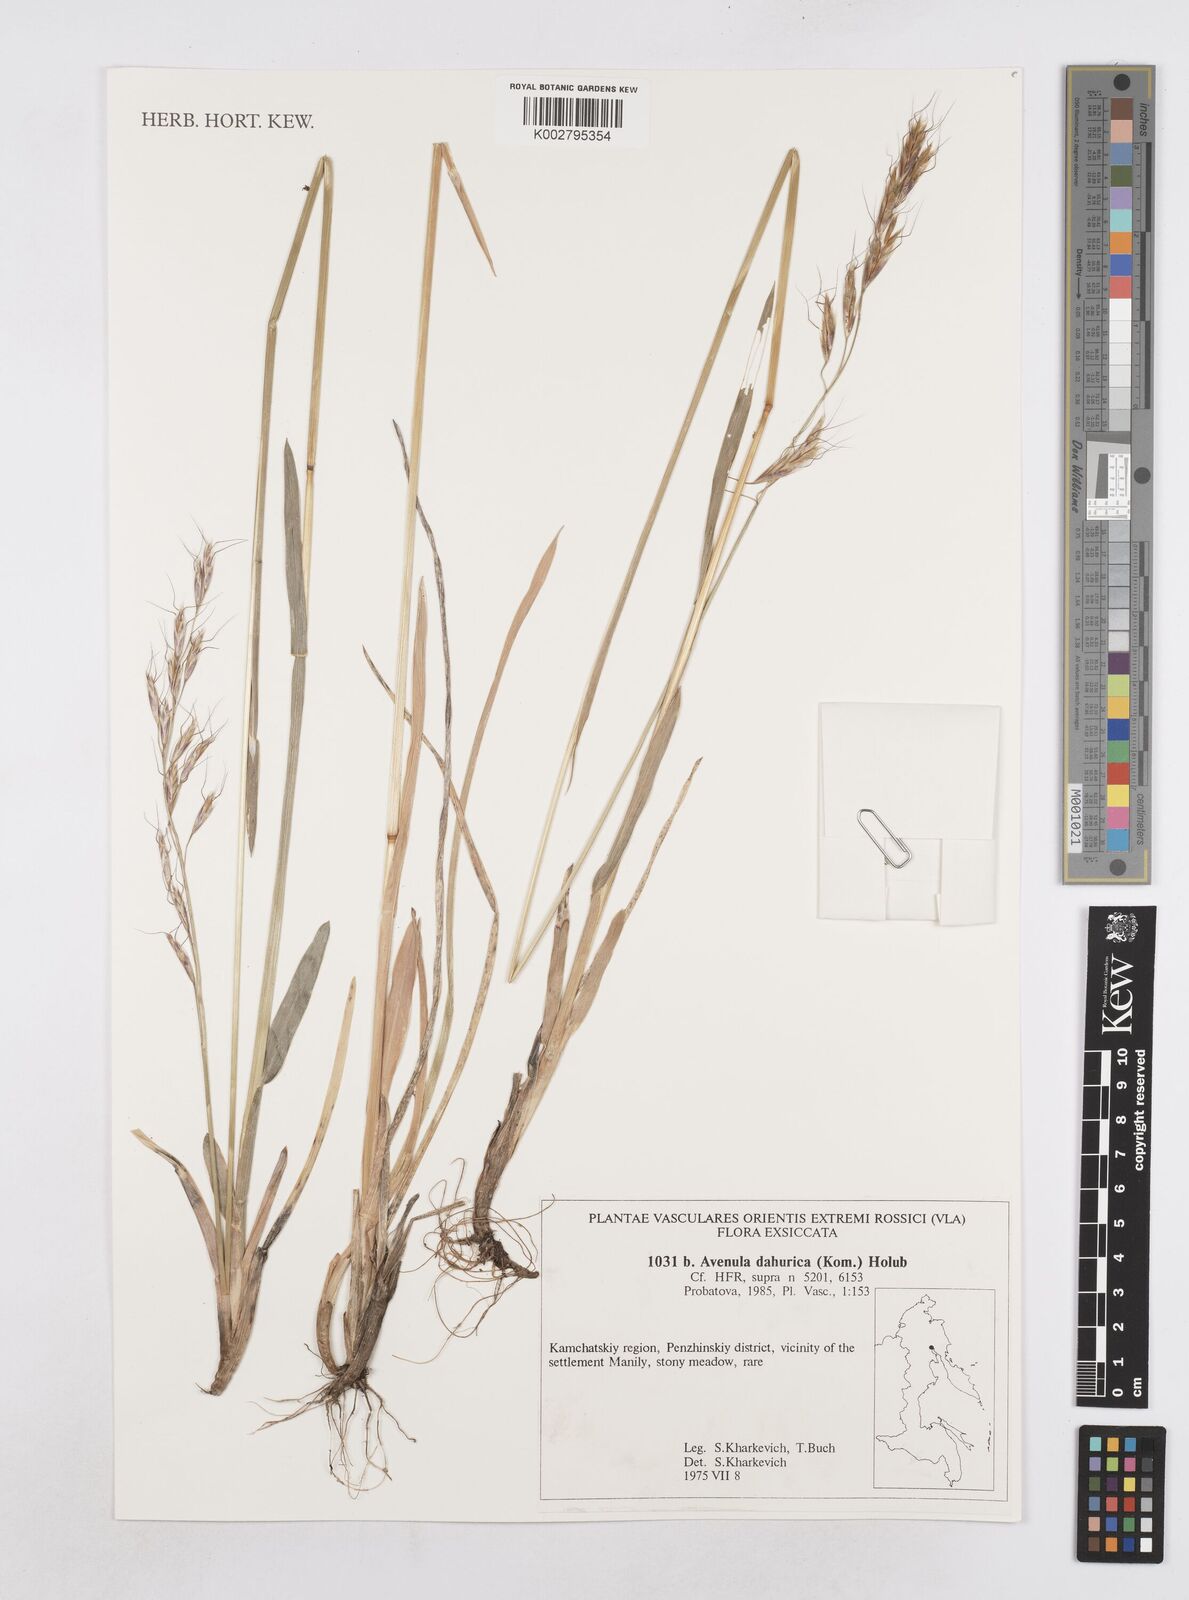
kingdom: Plantae
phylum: Tracheophyta
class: Liliopsida
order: Poales
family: Poaceae
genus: Helictochloa
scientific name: Helictochloa dahurica
